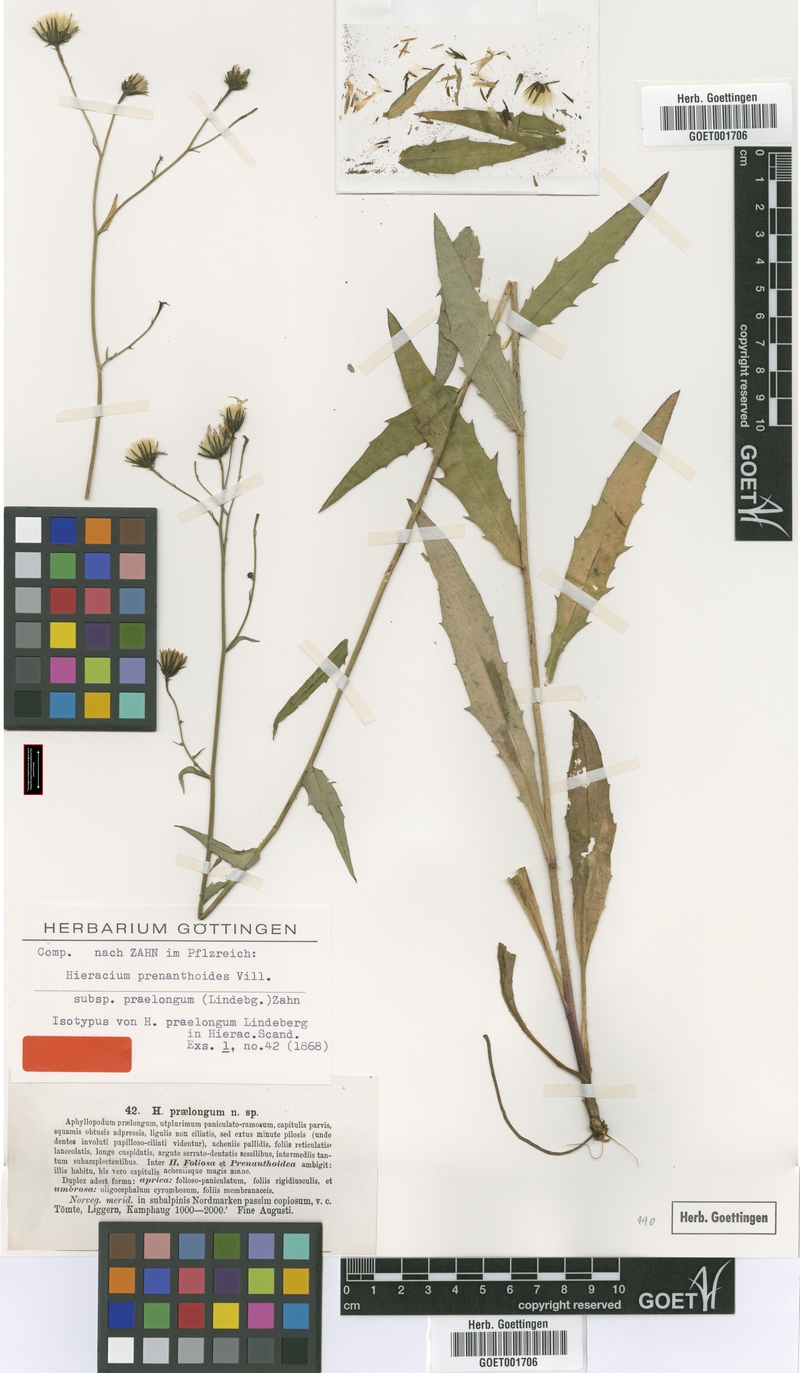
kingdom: Plantae
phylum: Tracheophyta
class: Magnoliopsida
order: Asterales
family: Asteraceae
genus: Hieracium
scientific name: Hieracium praelongum
